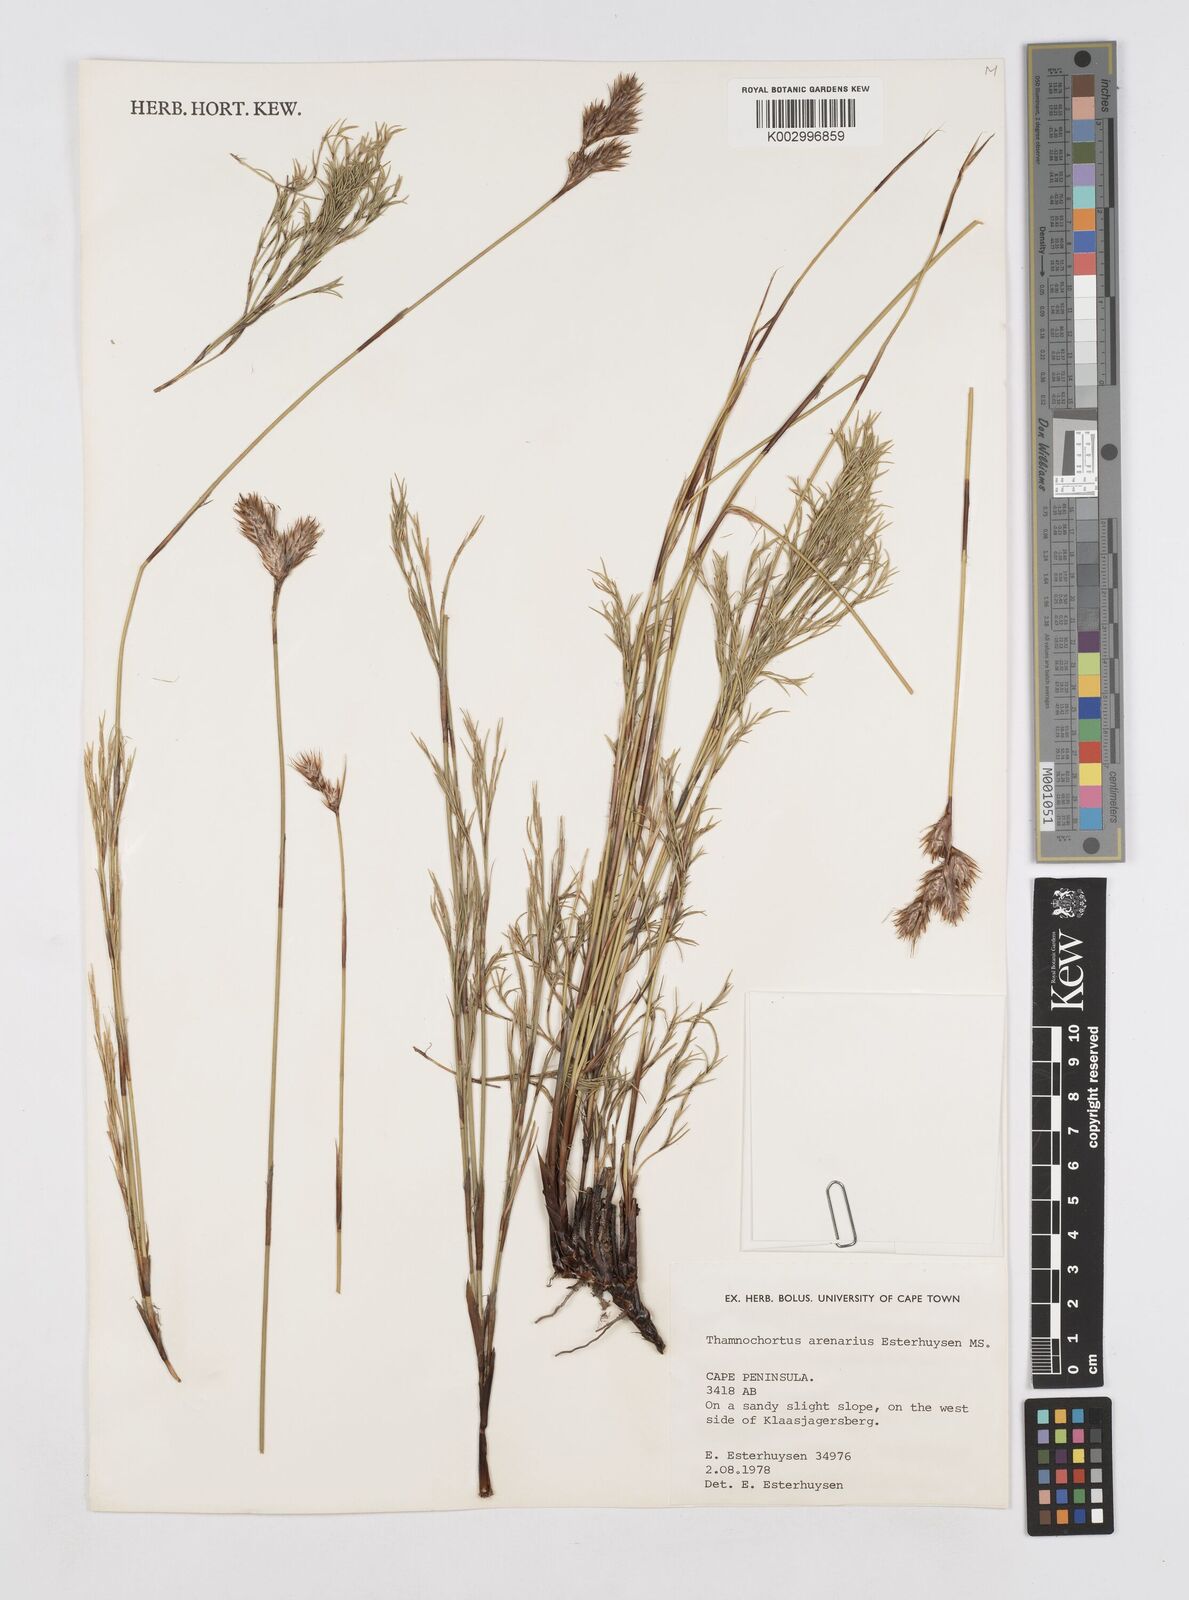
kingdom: Plantae
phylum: Tracheophyta
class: Liliopsida
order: Poales
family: Restionaceae
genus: Thamnochortus
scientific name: Thamnochortus arenarius
